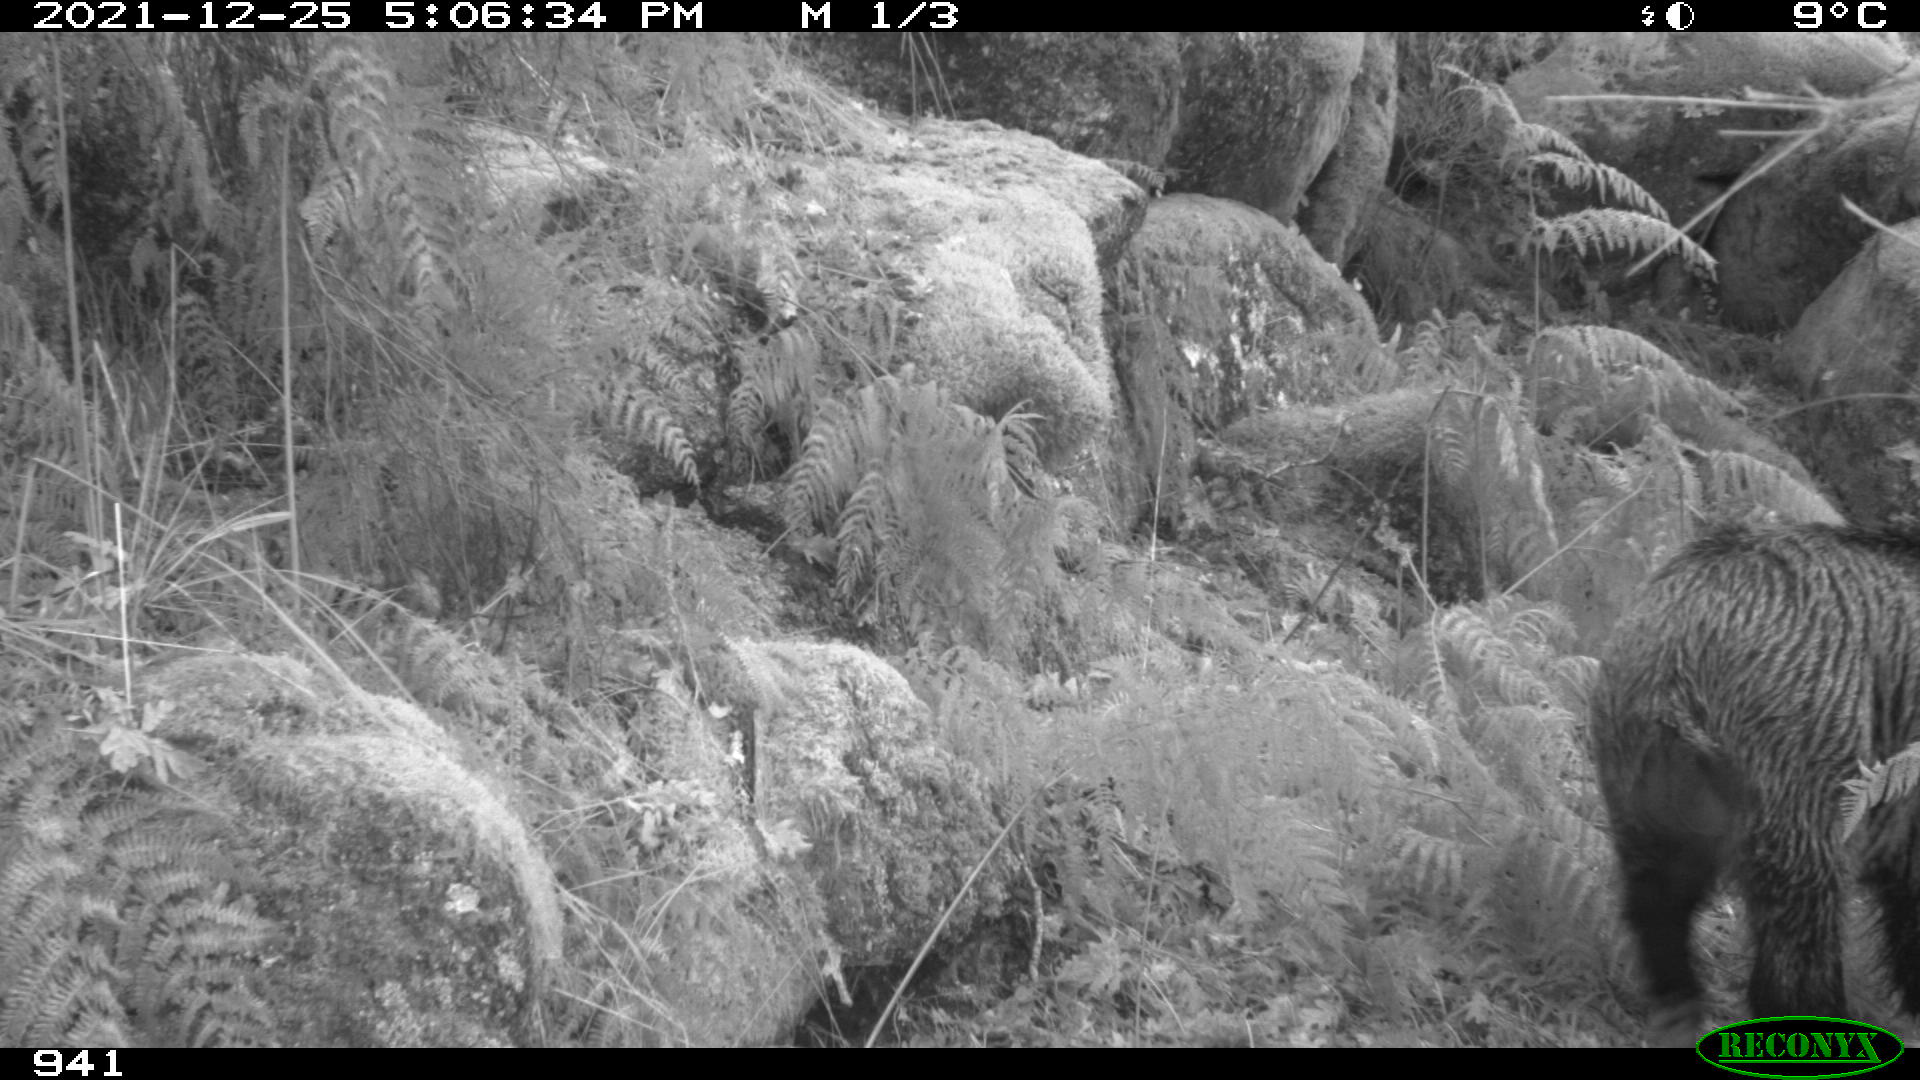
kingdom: Animalia
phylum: Chordata
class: Mammalia
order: Artiodactyla
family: Suidae
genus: Sus
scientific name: Sus scrofa
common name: Wild boar
